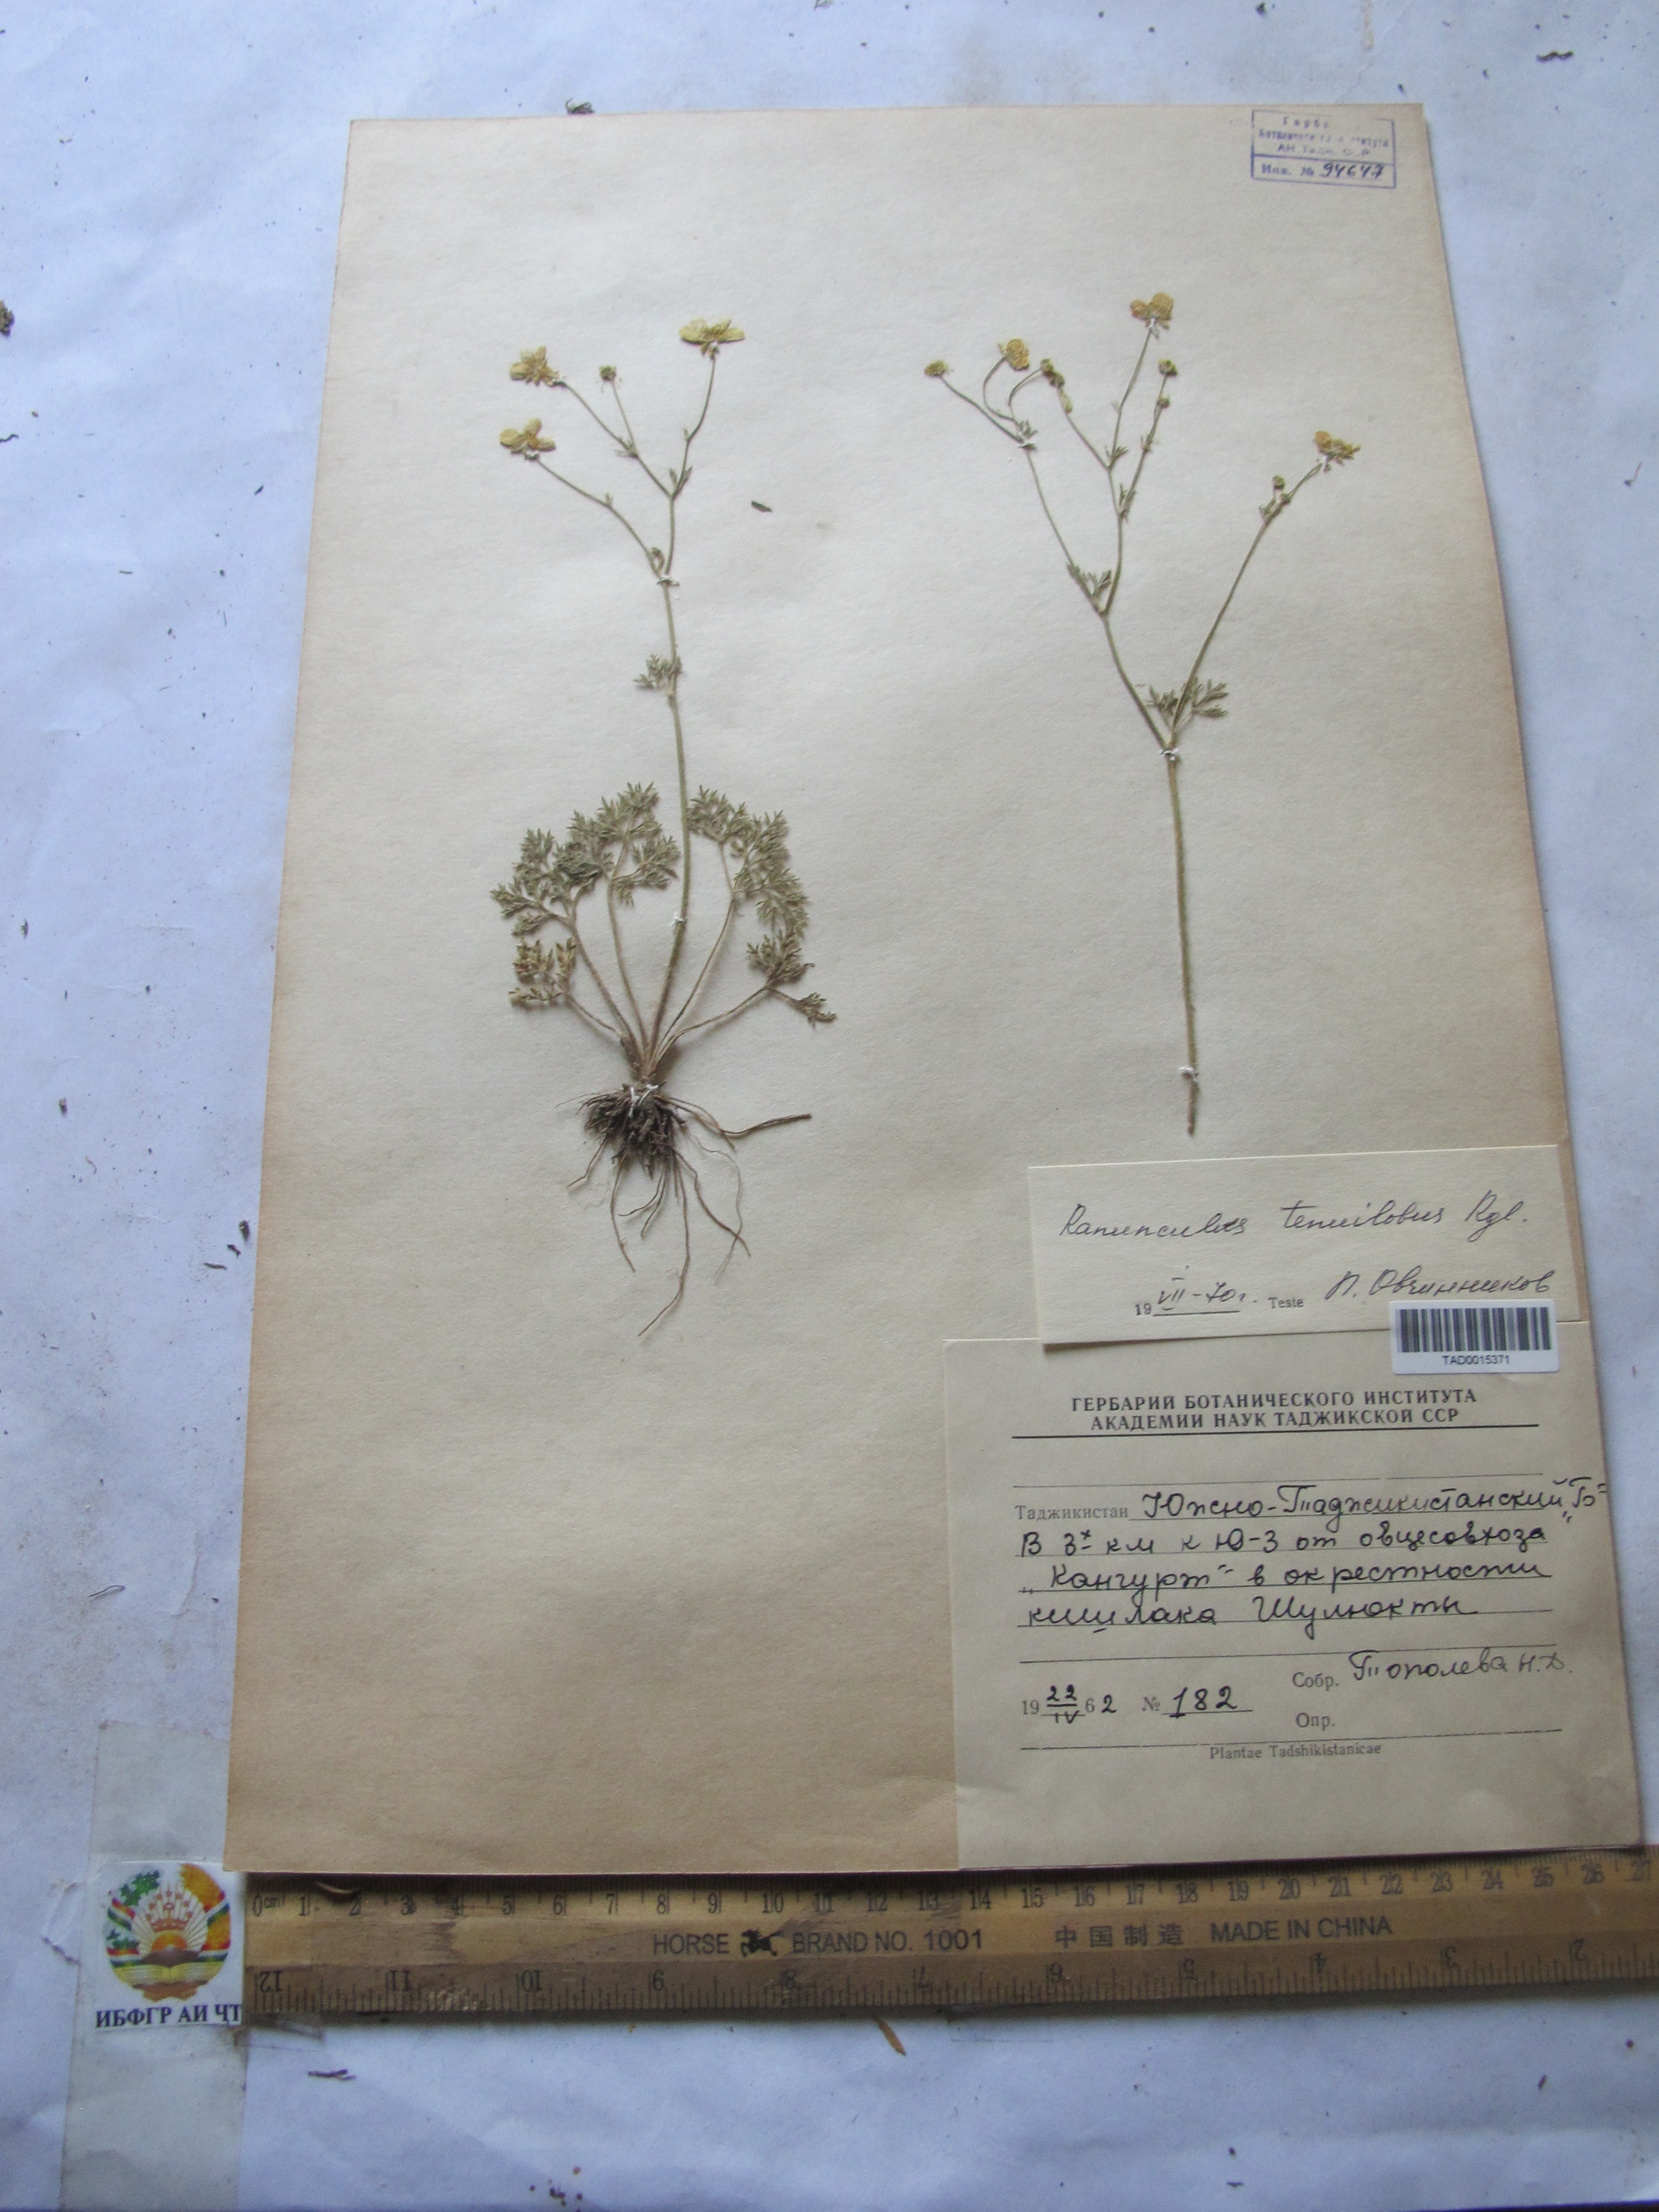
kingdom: Plantae
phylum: Tracheophyta
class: Magnoliopsida
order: Ranunculales
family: Ranunculaceae
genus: Ranunculus
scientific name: Ranunculus tenuilobus
